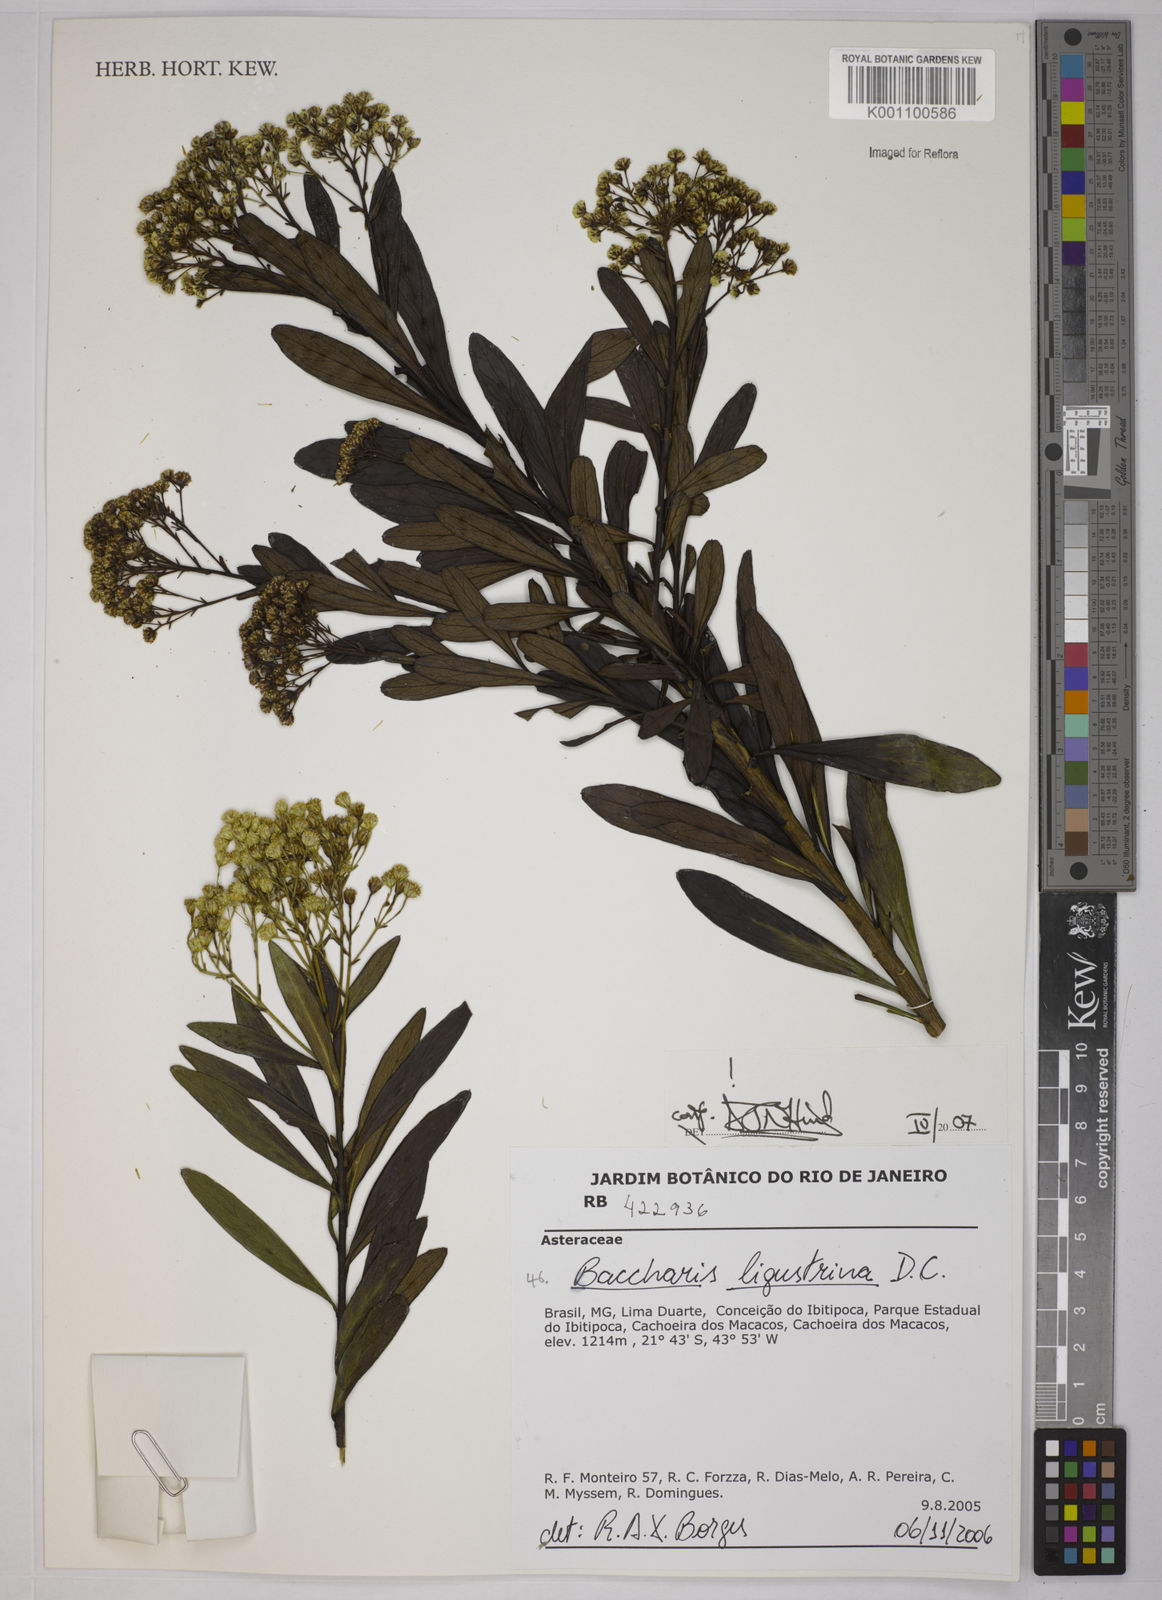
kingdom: Plantae
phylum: Tracheophyta
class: Magnoliopsida
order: Asterales
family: Asteraceae
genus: Baccharis
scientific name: Baccharis ligustrina
